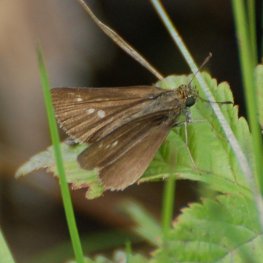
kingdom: Animalia
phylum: Arthropoda
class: Insecta
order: Lepidoptera
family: Hesperiidae
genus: Euphyes
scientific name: Euphyes vestris
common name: Dun Skipper
